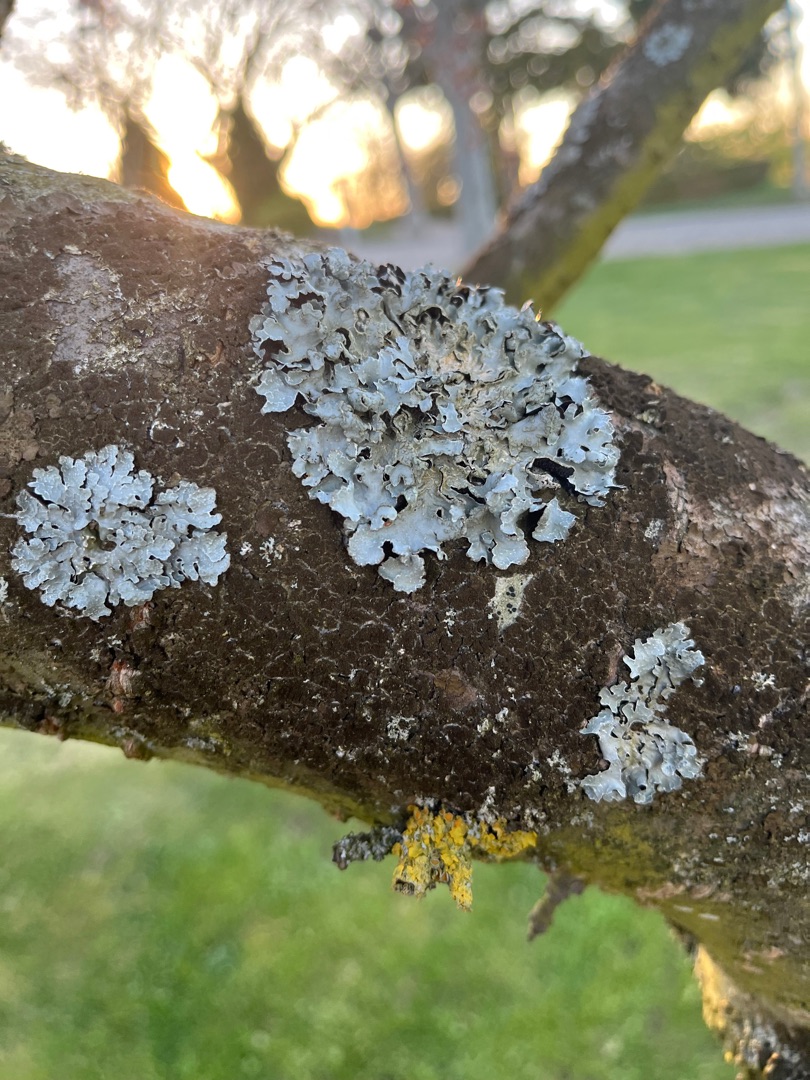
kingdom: Fungi
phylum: Ascomycota
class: Lecanoromycetes
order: Lecanorales
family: Parmeliaceae
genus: Parmelia
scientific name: Parmelia sulcata
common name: Rynket skållav
